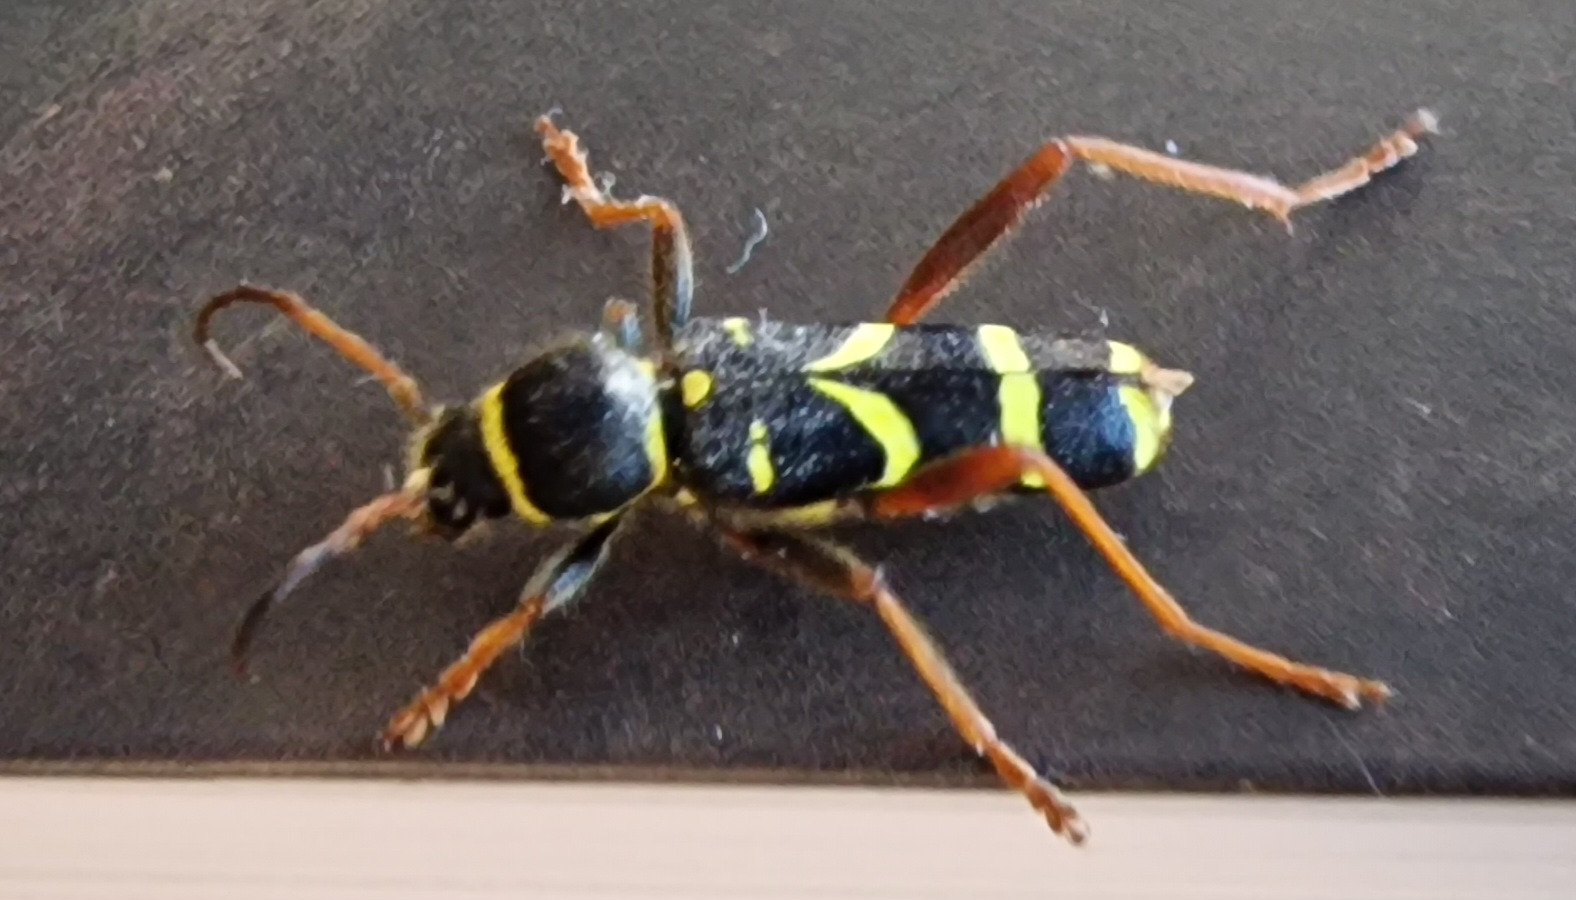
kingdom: Animalia
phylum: Arthropoda
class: Insecta
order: Coleoptera
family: Cerambycidae
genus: Clytus
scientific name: Clytus arietis
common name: Lille hvepsebuk
